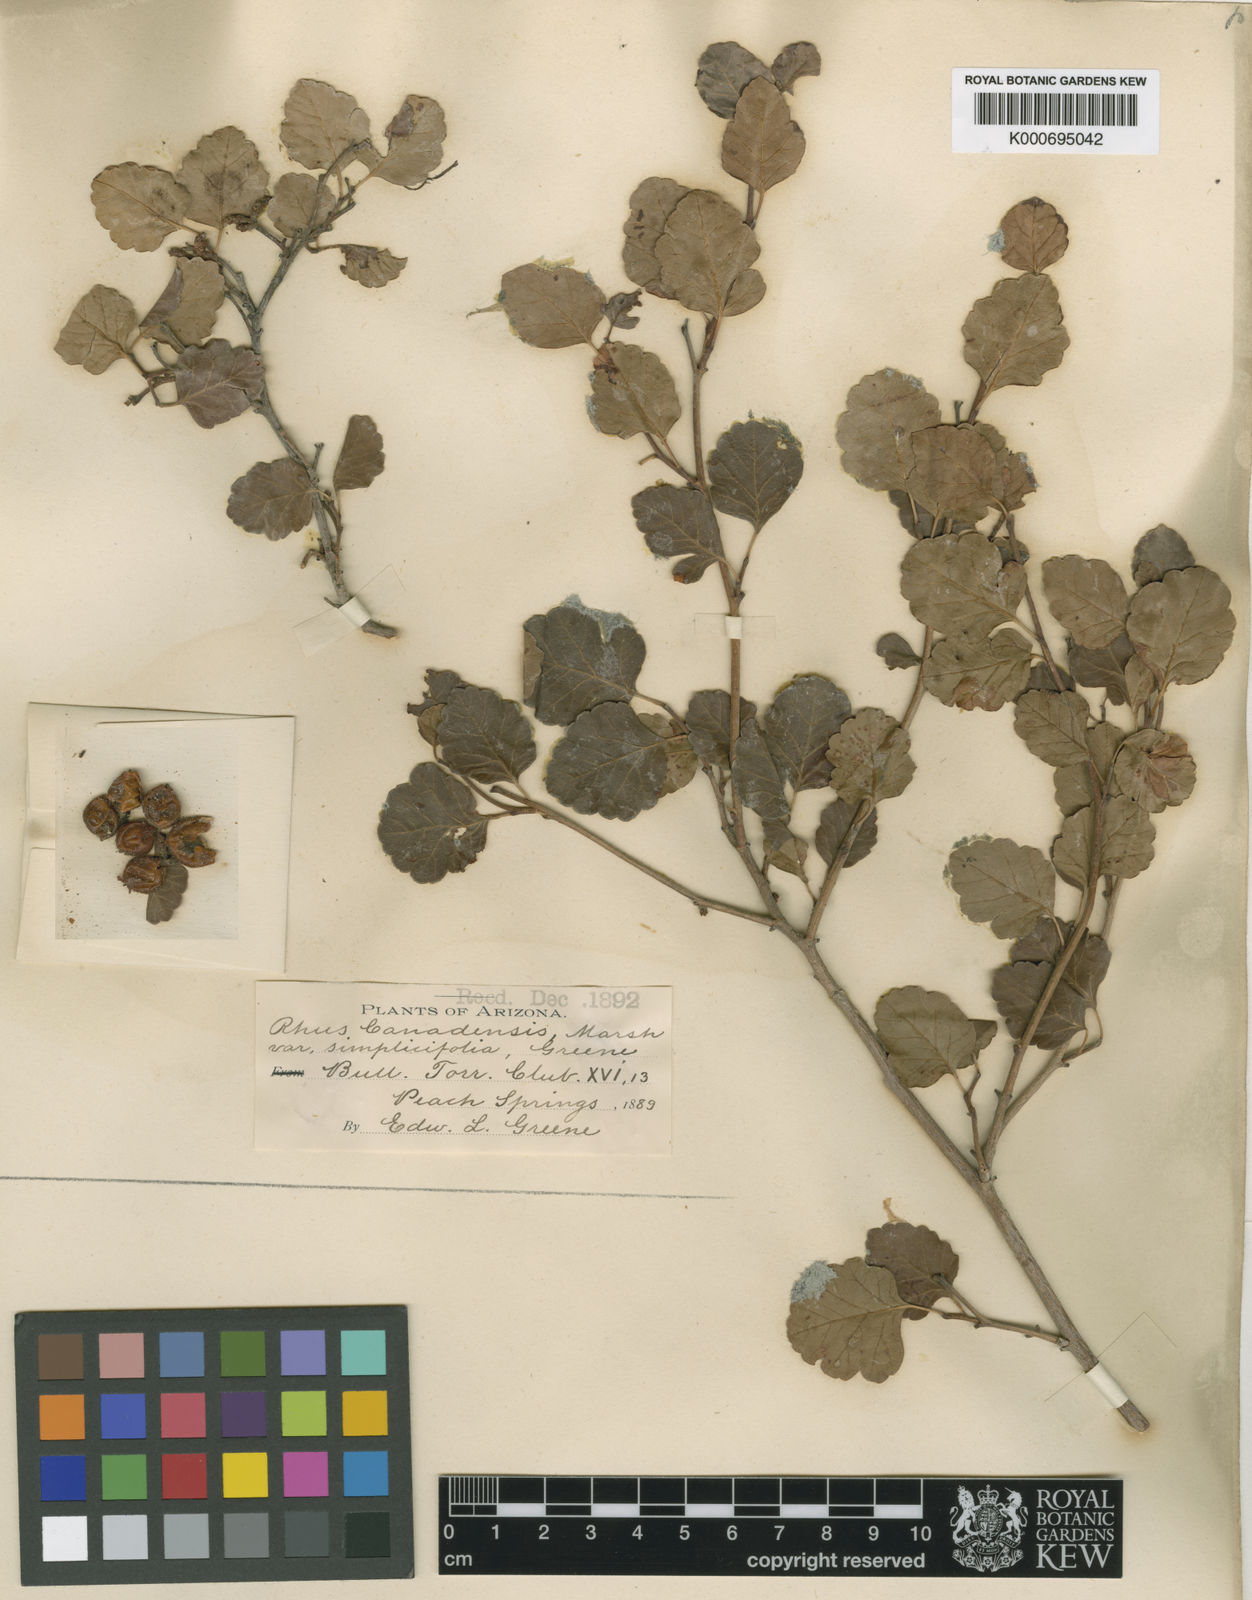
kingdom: Plantae
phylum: Tracheophyta
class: Magnoliopsida
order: Sapindales
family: Anacardiaceae
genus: Rhus
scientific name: Rhus trilobata
